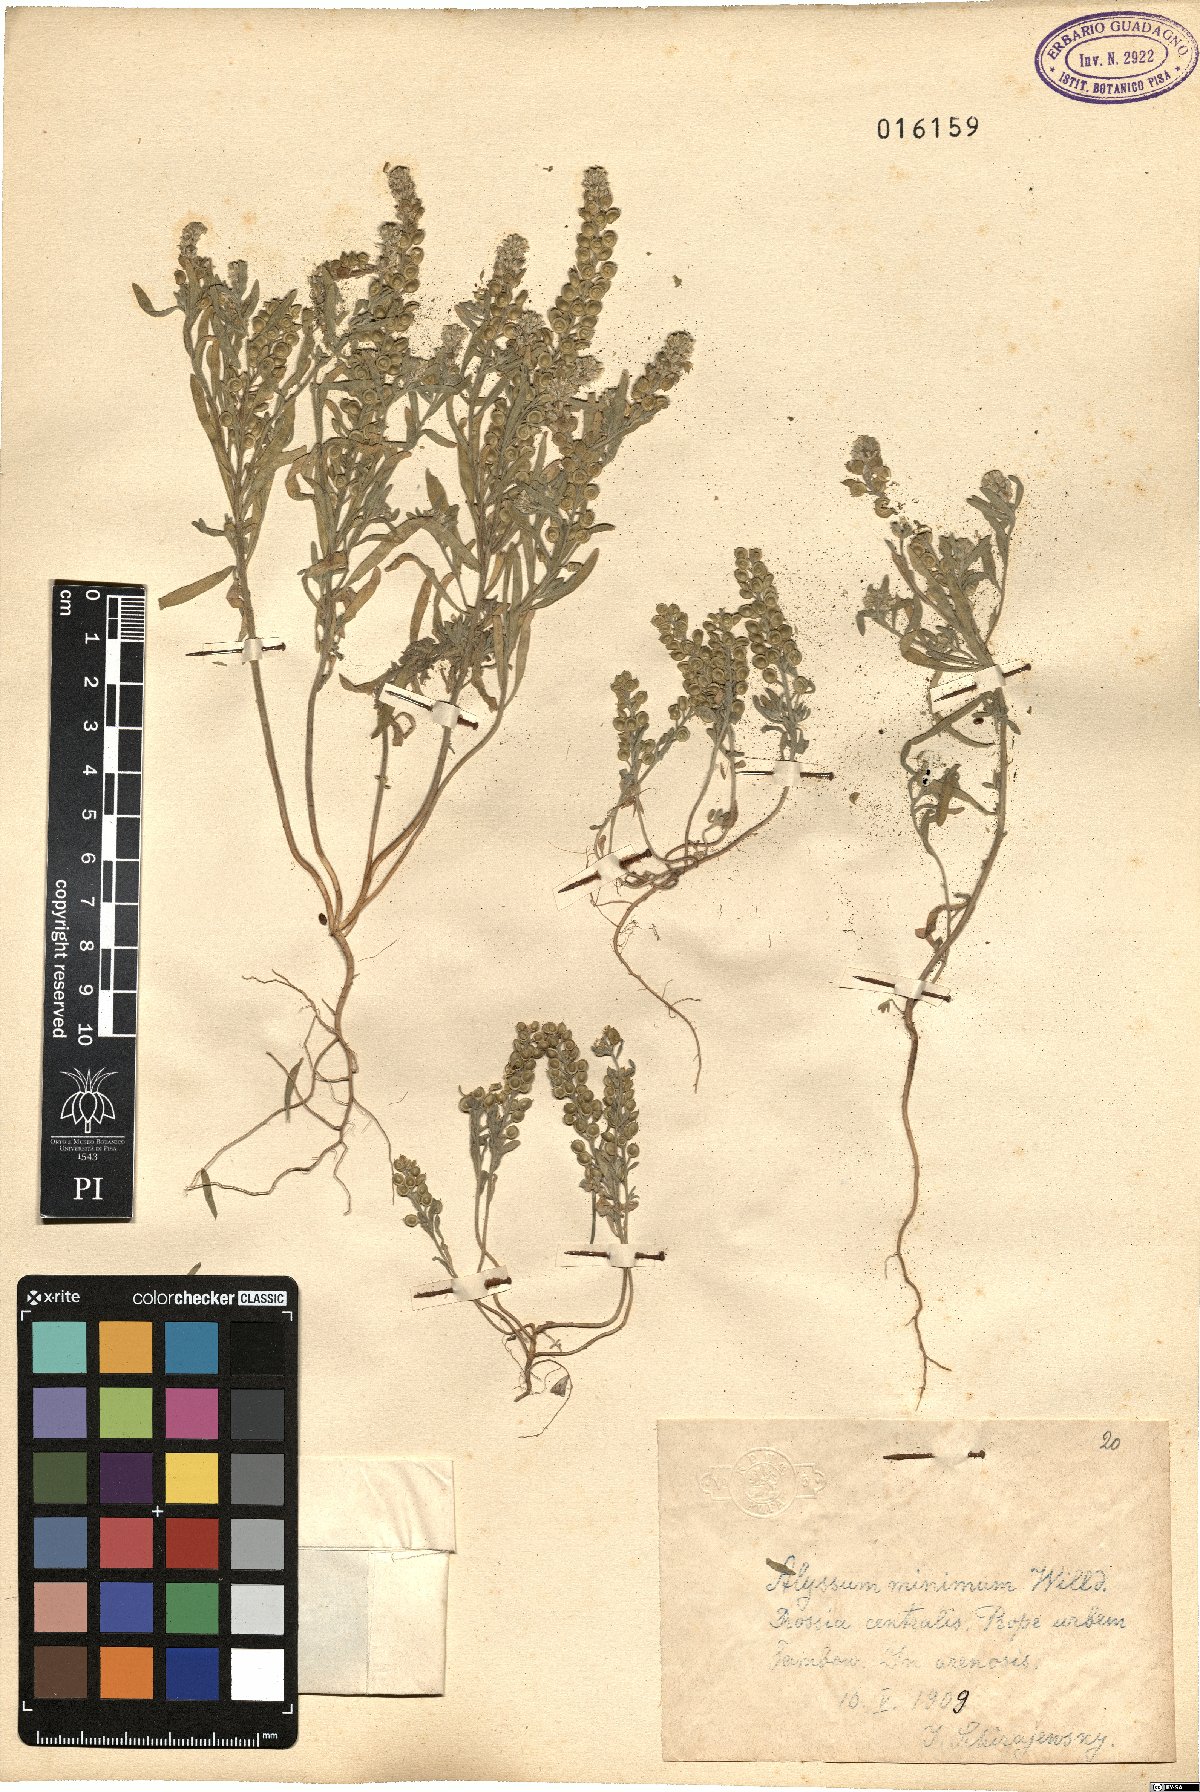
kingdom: Plantae
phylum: Tracheophyta
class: Magnoliopsida
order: Brassicales
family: Brassicaceae
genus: Alyssum
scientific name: Alyssum turkestanicum
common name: Desert alyssum
